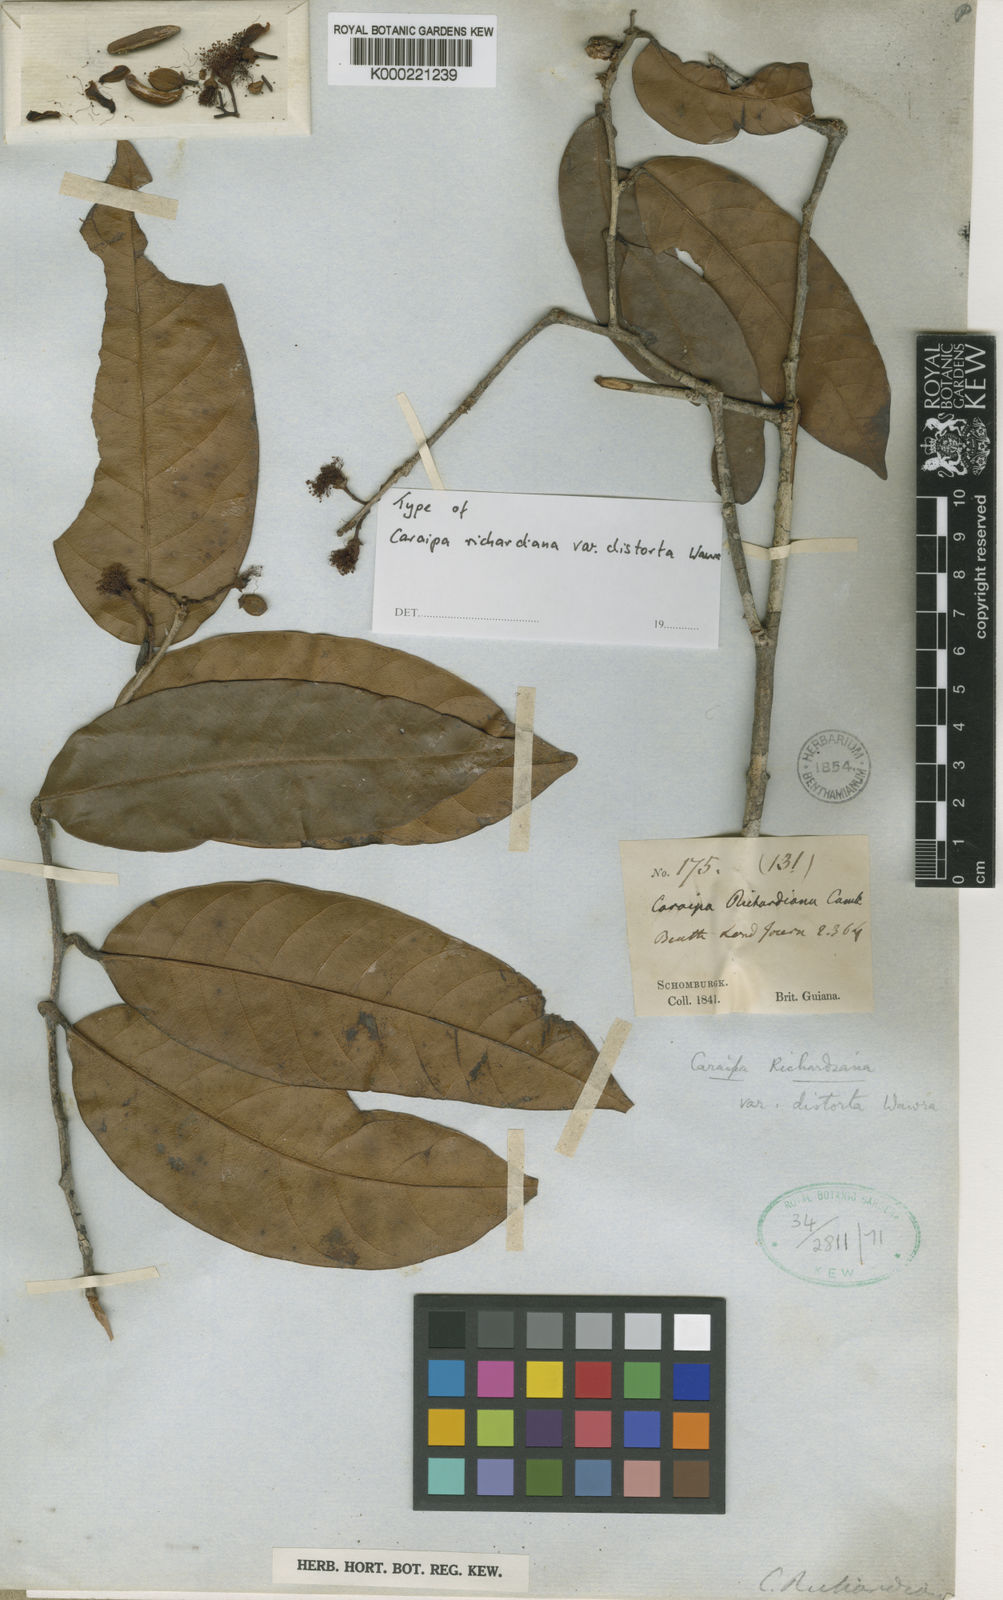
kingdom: Plantae
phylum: Tracheophyta
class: Magnoliopsida
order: Malpighiales
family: Calophyllaceae
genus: Caraipa
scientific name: Caraipa richardiana
